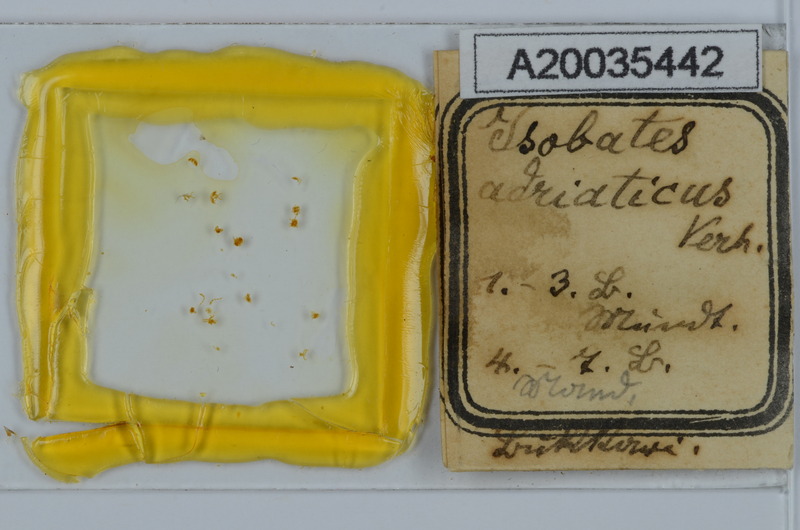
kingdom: Animalia
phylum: Arthropoda
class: Diplopoda
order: Julida
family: Nemasomatidae
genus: Thalassisobates
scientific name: Thalassisobates littoralis
